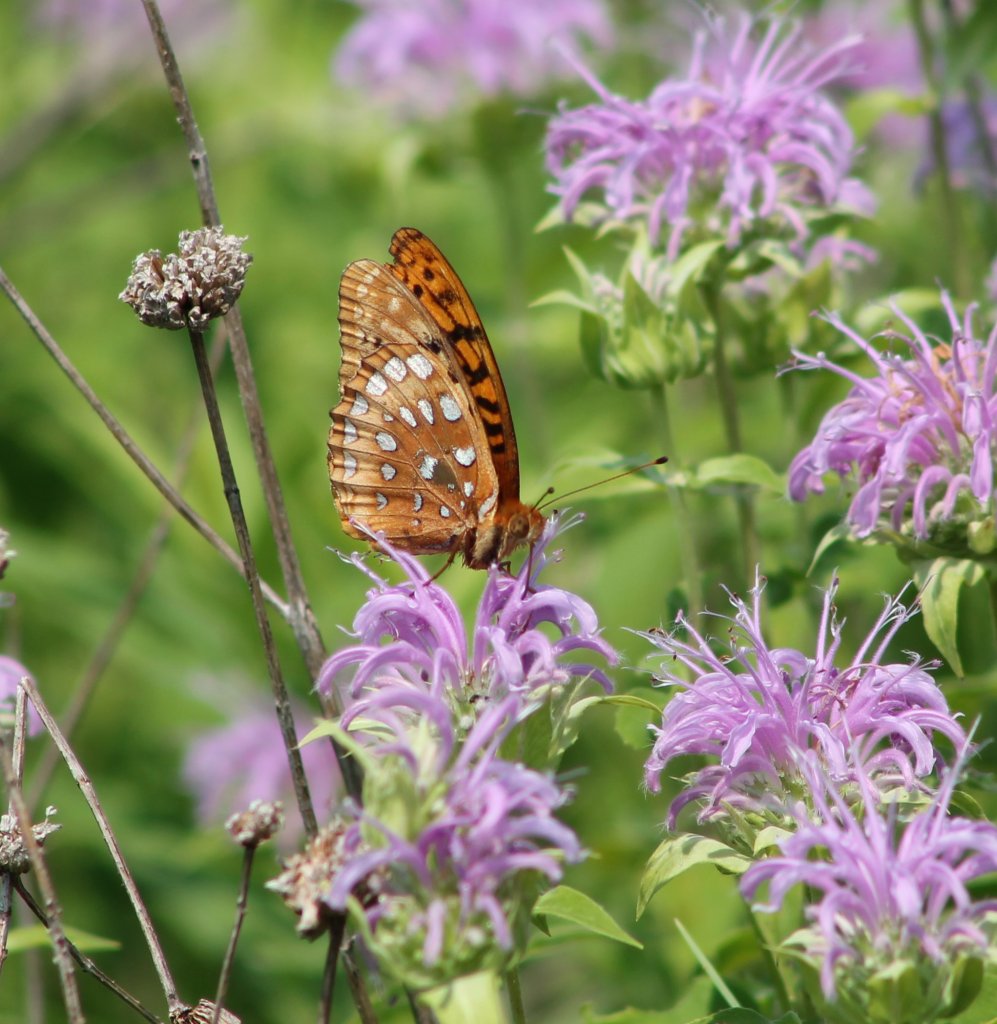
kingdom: Animalia
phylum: Arthropoda
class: Insecta
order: Lepidoptera
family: Nymphalidae
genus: Speyeria
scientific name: Speyeria cybele
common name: Great Spangled Fritillary
